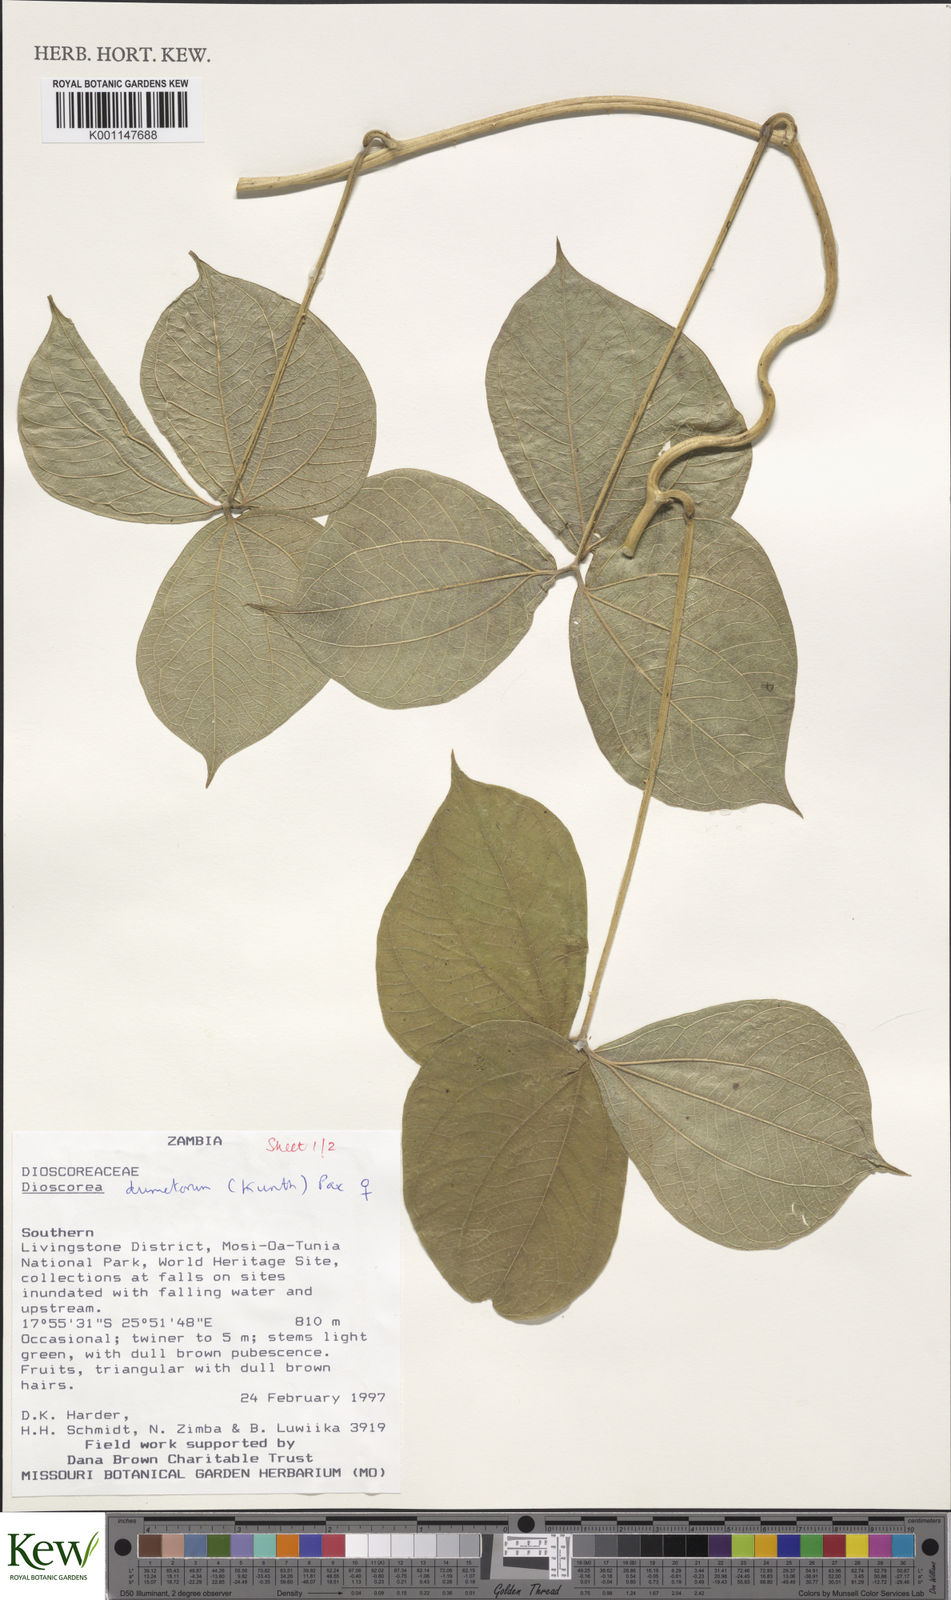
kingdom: Plantae
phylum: Tracheophyta
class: Liliopsida
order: Dioscoreales
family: Dioscoreaceae
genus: Dioscorea
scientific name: Dioscorea dumetorum
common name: African bitter yam
